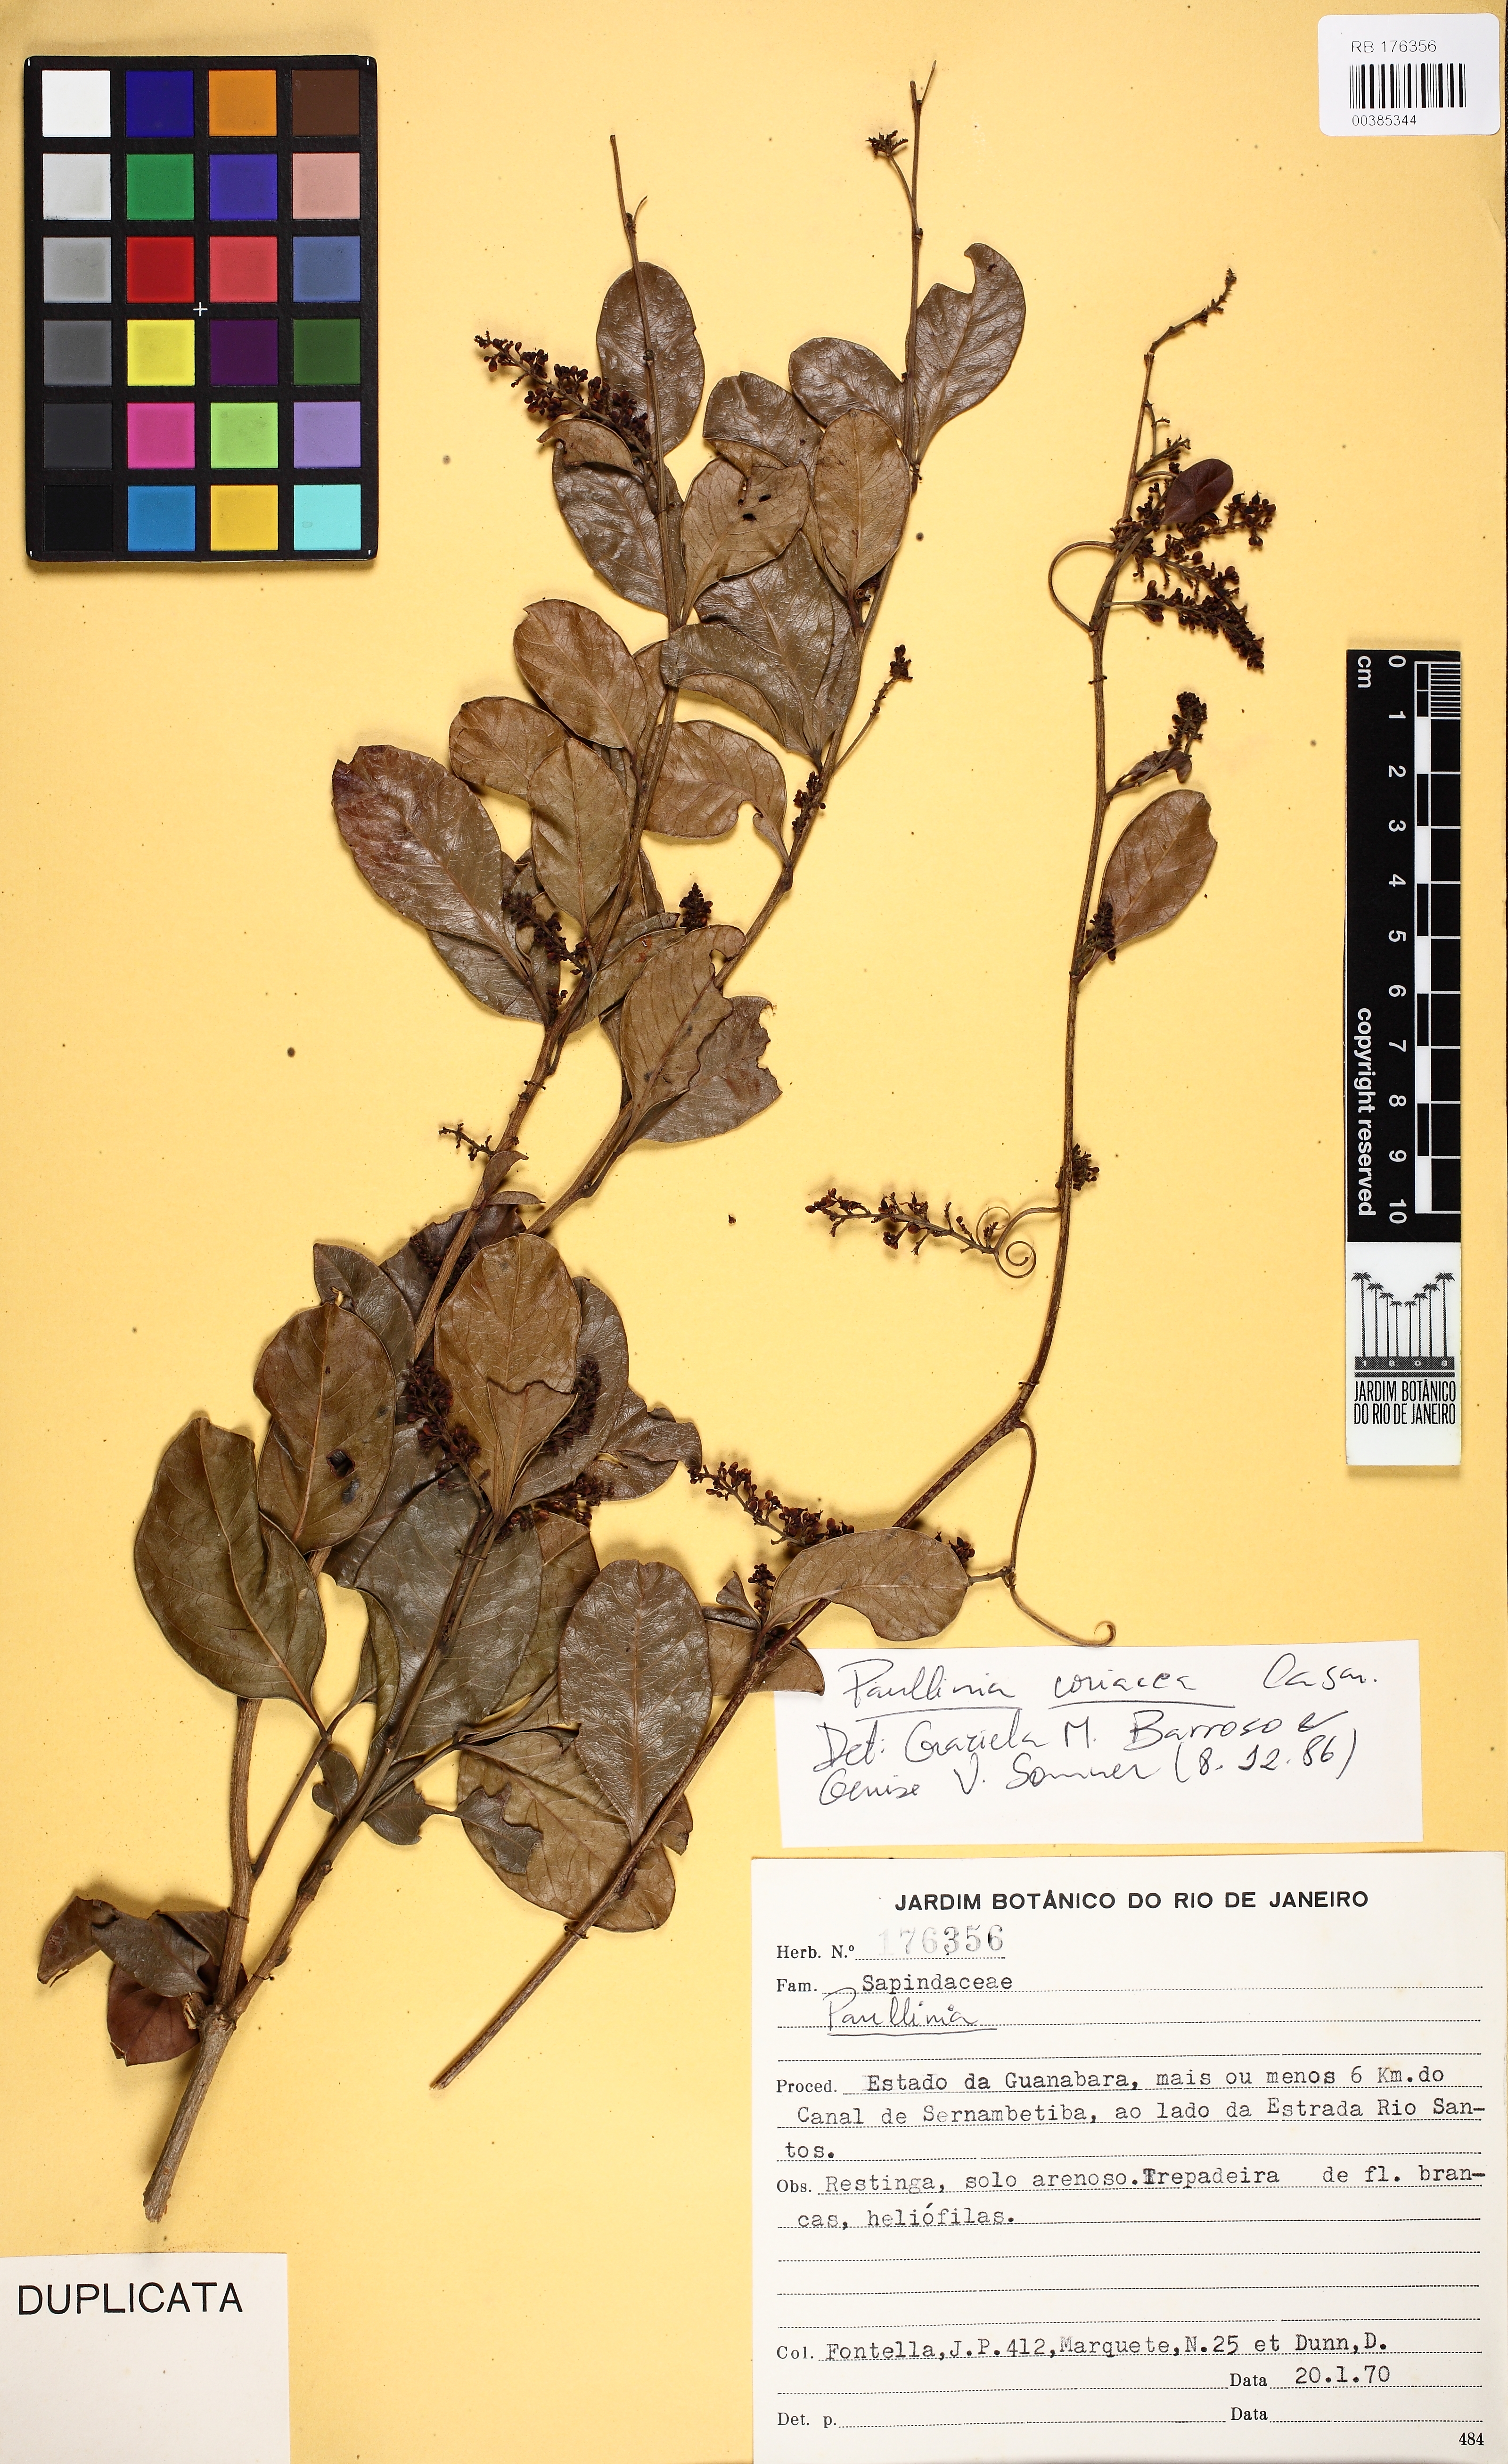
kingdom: Plantae
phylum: Tracheophyta
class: Magnoliopsida
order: Sapindales
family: Sapindaceae
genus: Paullinia
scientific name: Paullinia coriacea
